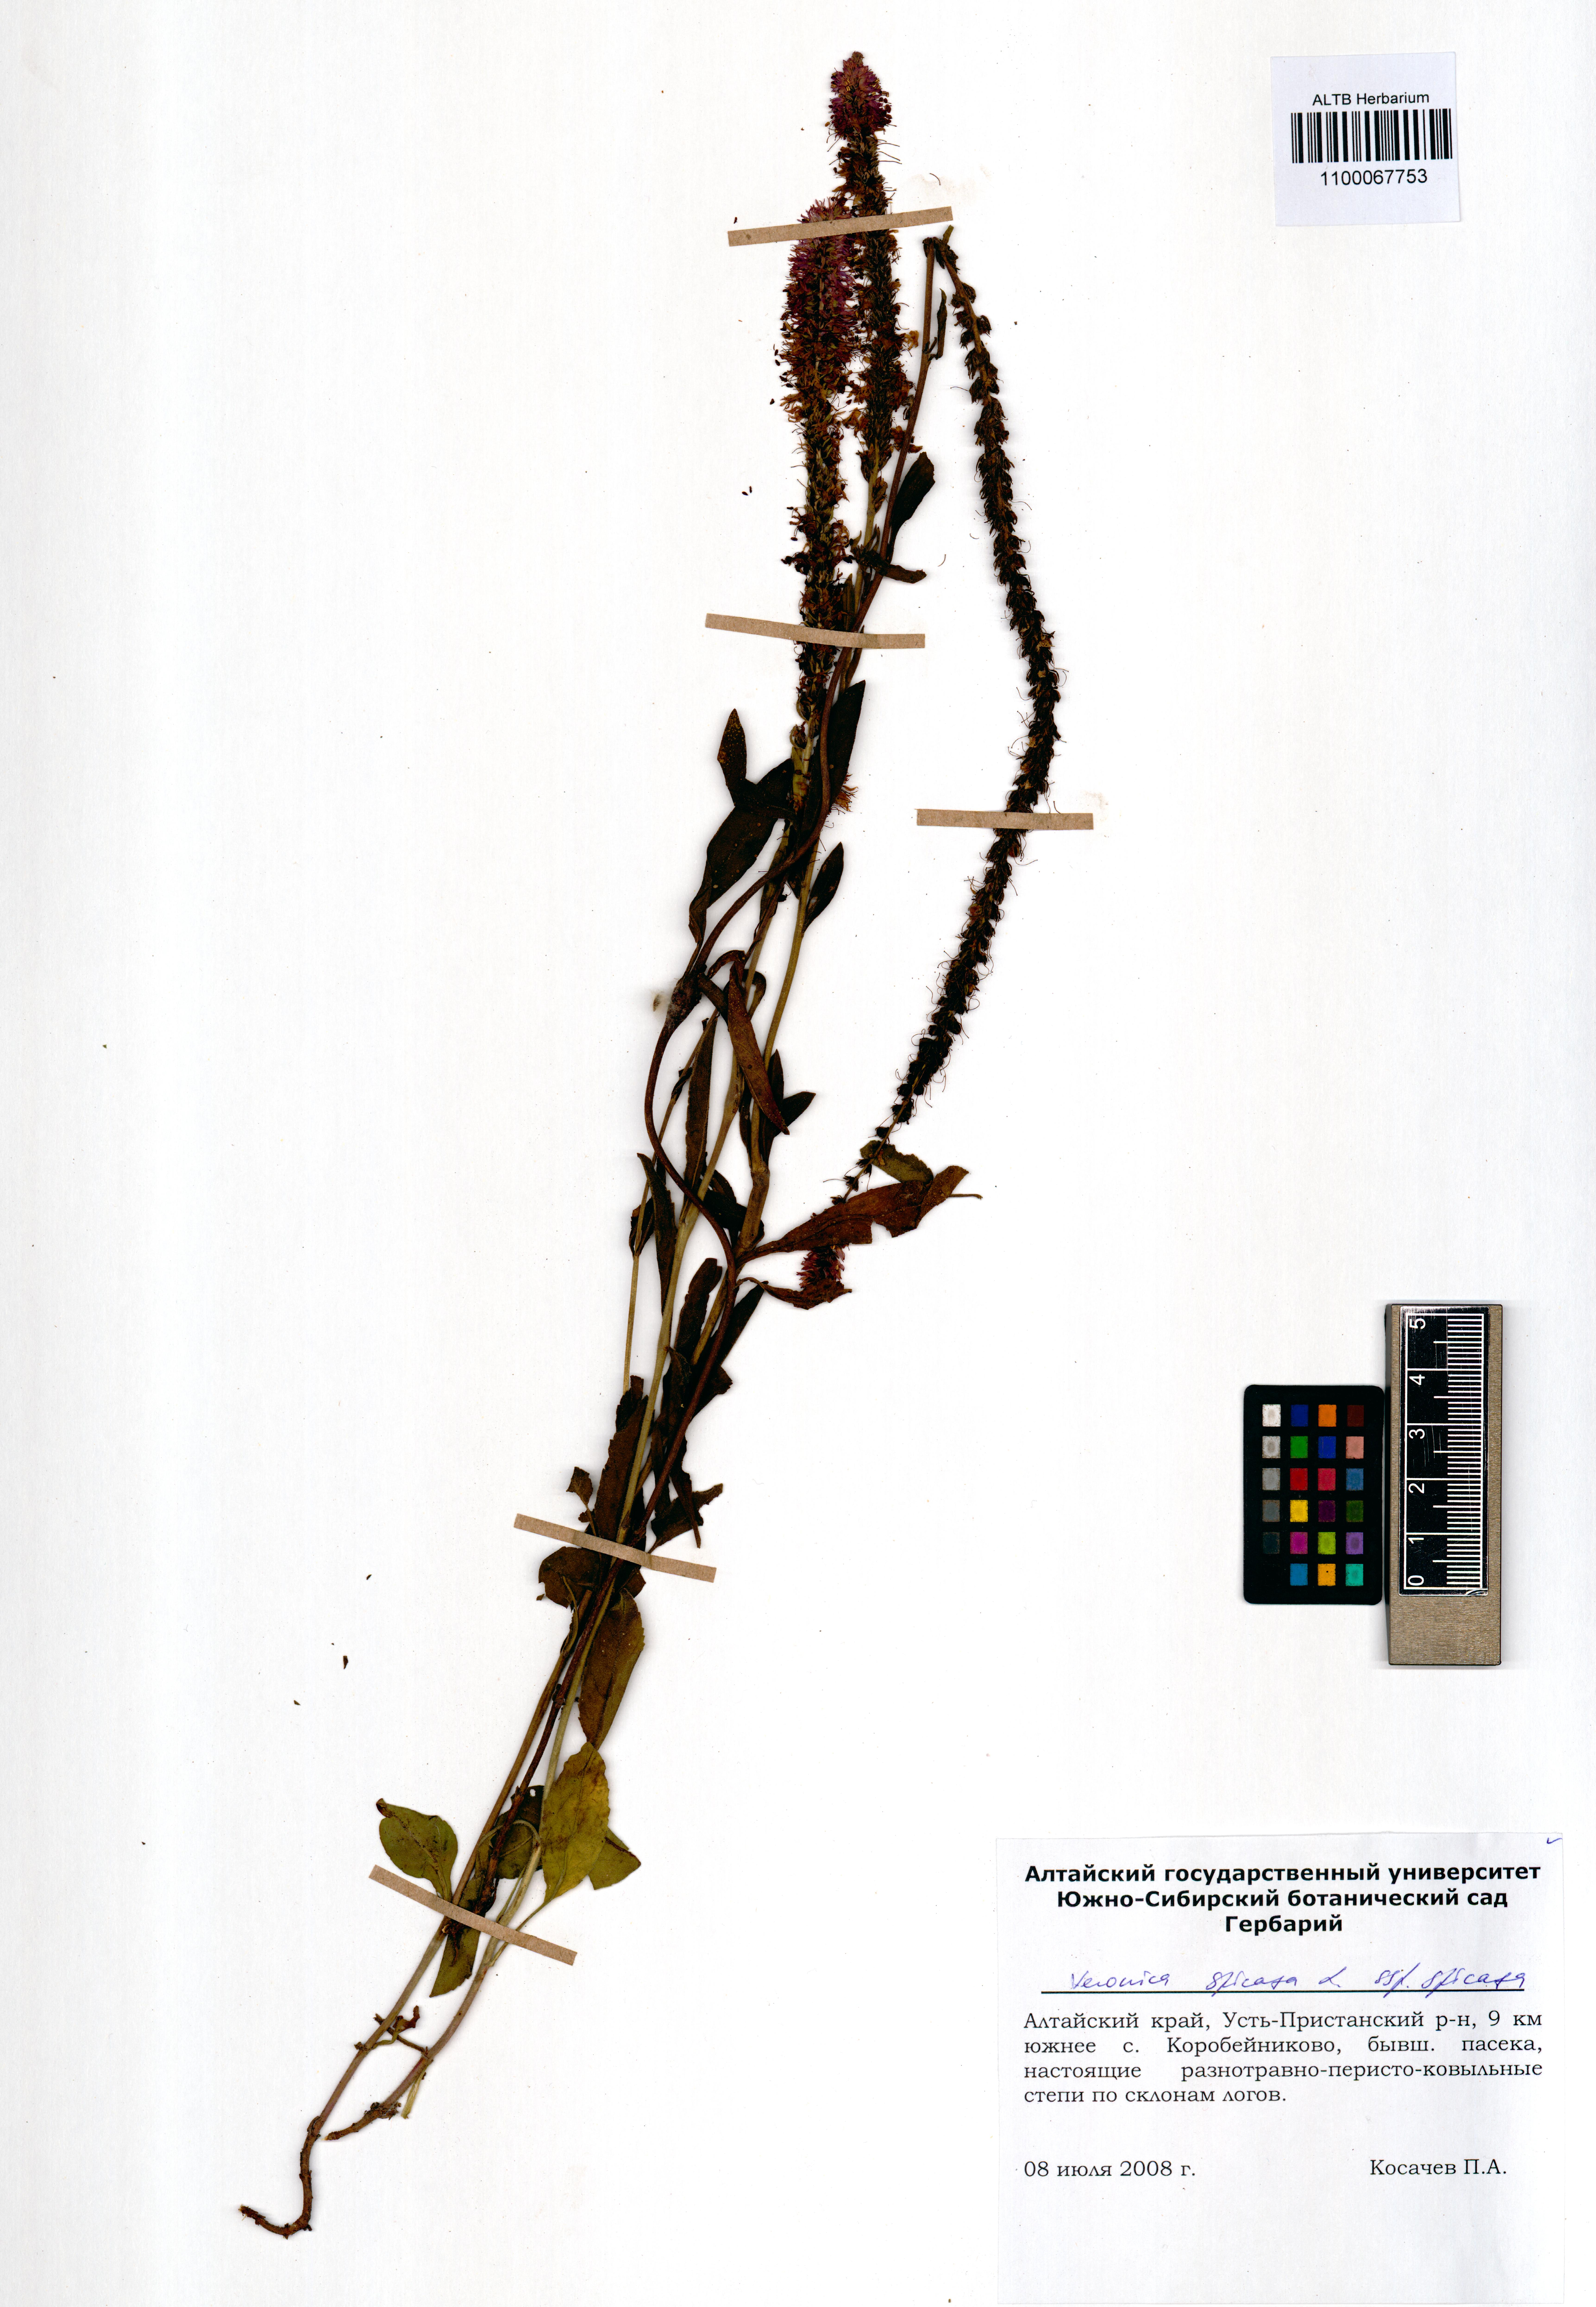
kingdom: Plantae
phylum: Tracheophyta
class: Magnoliopsida
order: Lamiales
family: Plantaginaceae
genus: Veronica
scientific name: Veronica spicata
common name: Spiked speedwell
